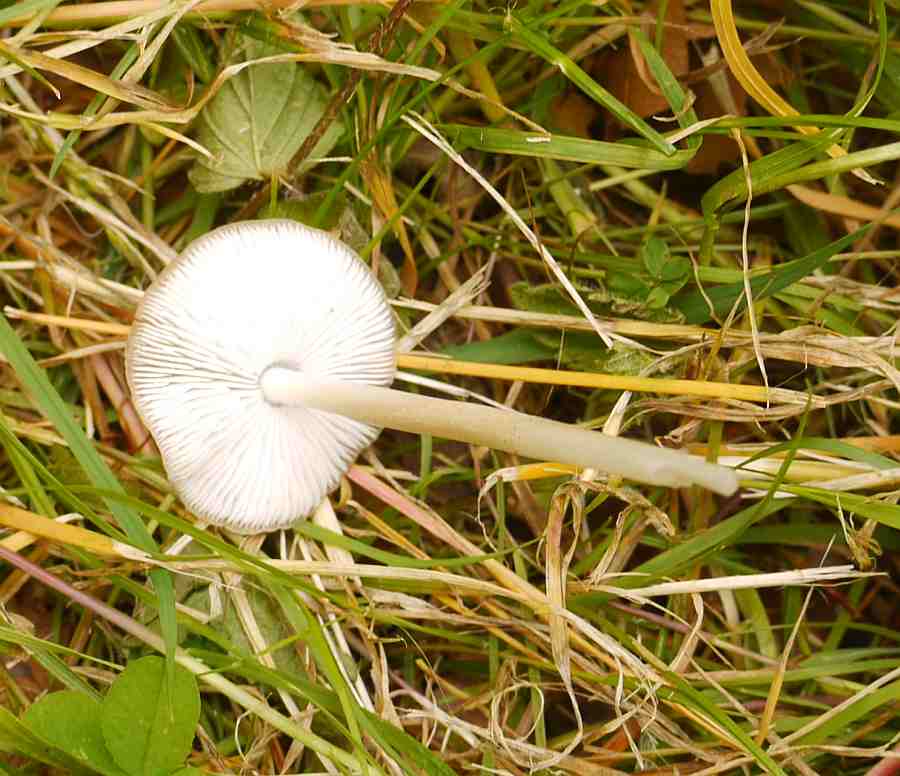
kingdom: Fungi
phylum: Basidiomycota
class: Agaricomycetes
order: Agaricales
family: Porotheleaceae
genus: Hydropodia
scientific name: Hydropodia subalpina
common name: vår-fnugfod
